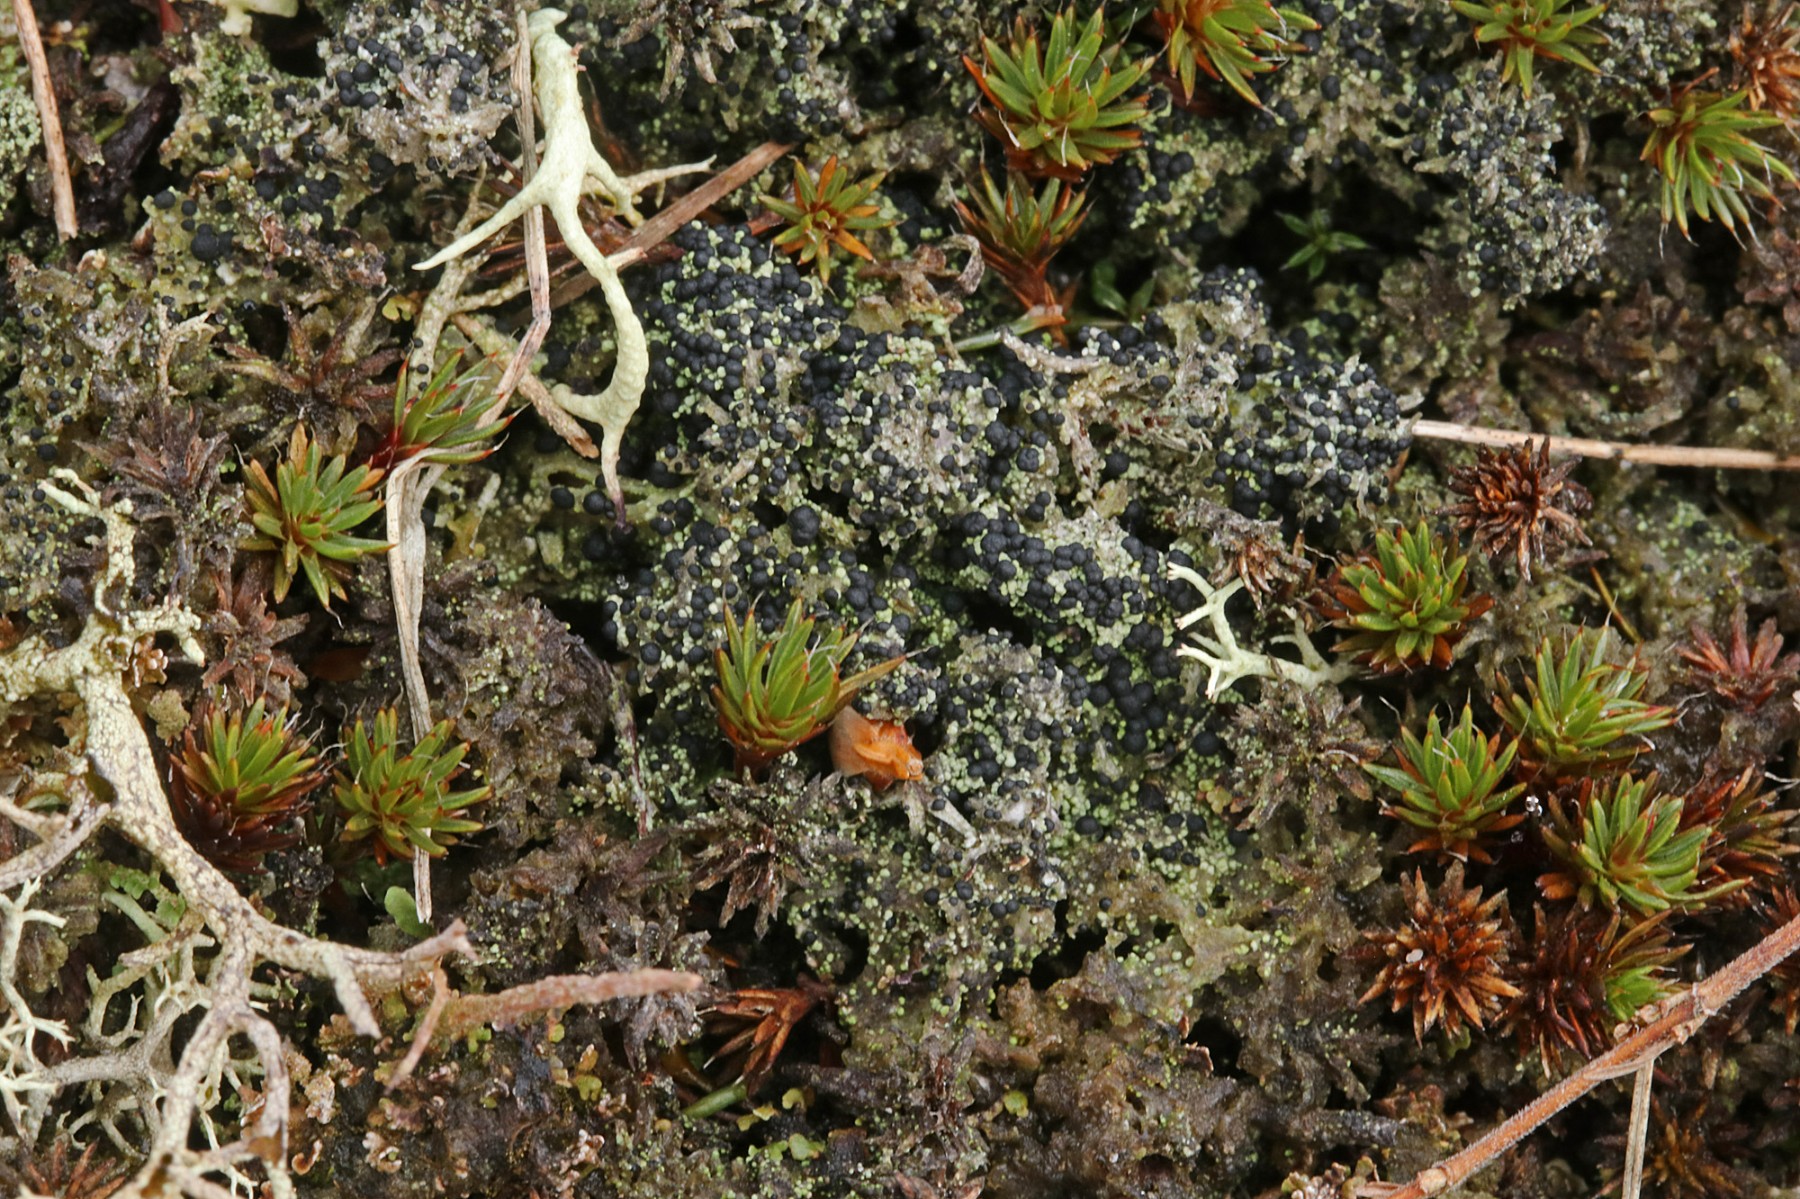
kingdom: Fungi
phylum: Ascomycota
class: Lecanoromycetes
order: Lecanorales
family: Byssolomataceae
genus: Micarea
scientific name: Micarea lignaria
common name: tørve-knaplav
